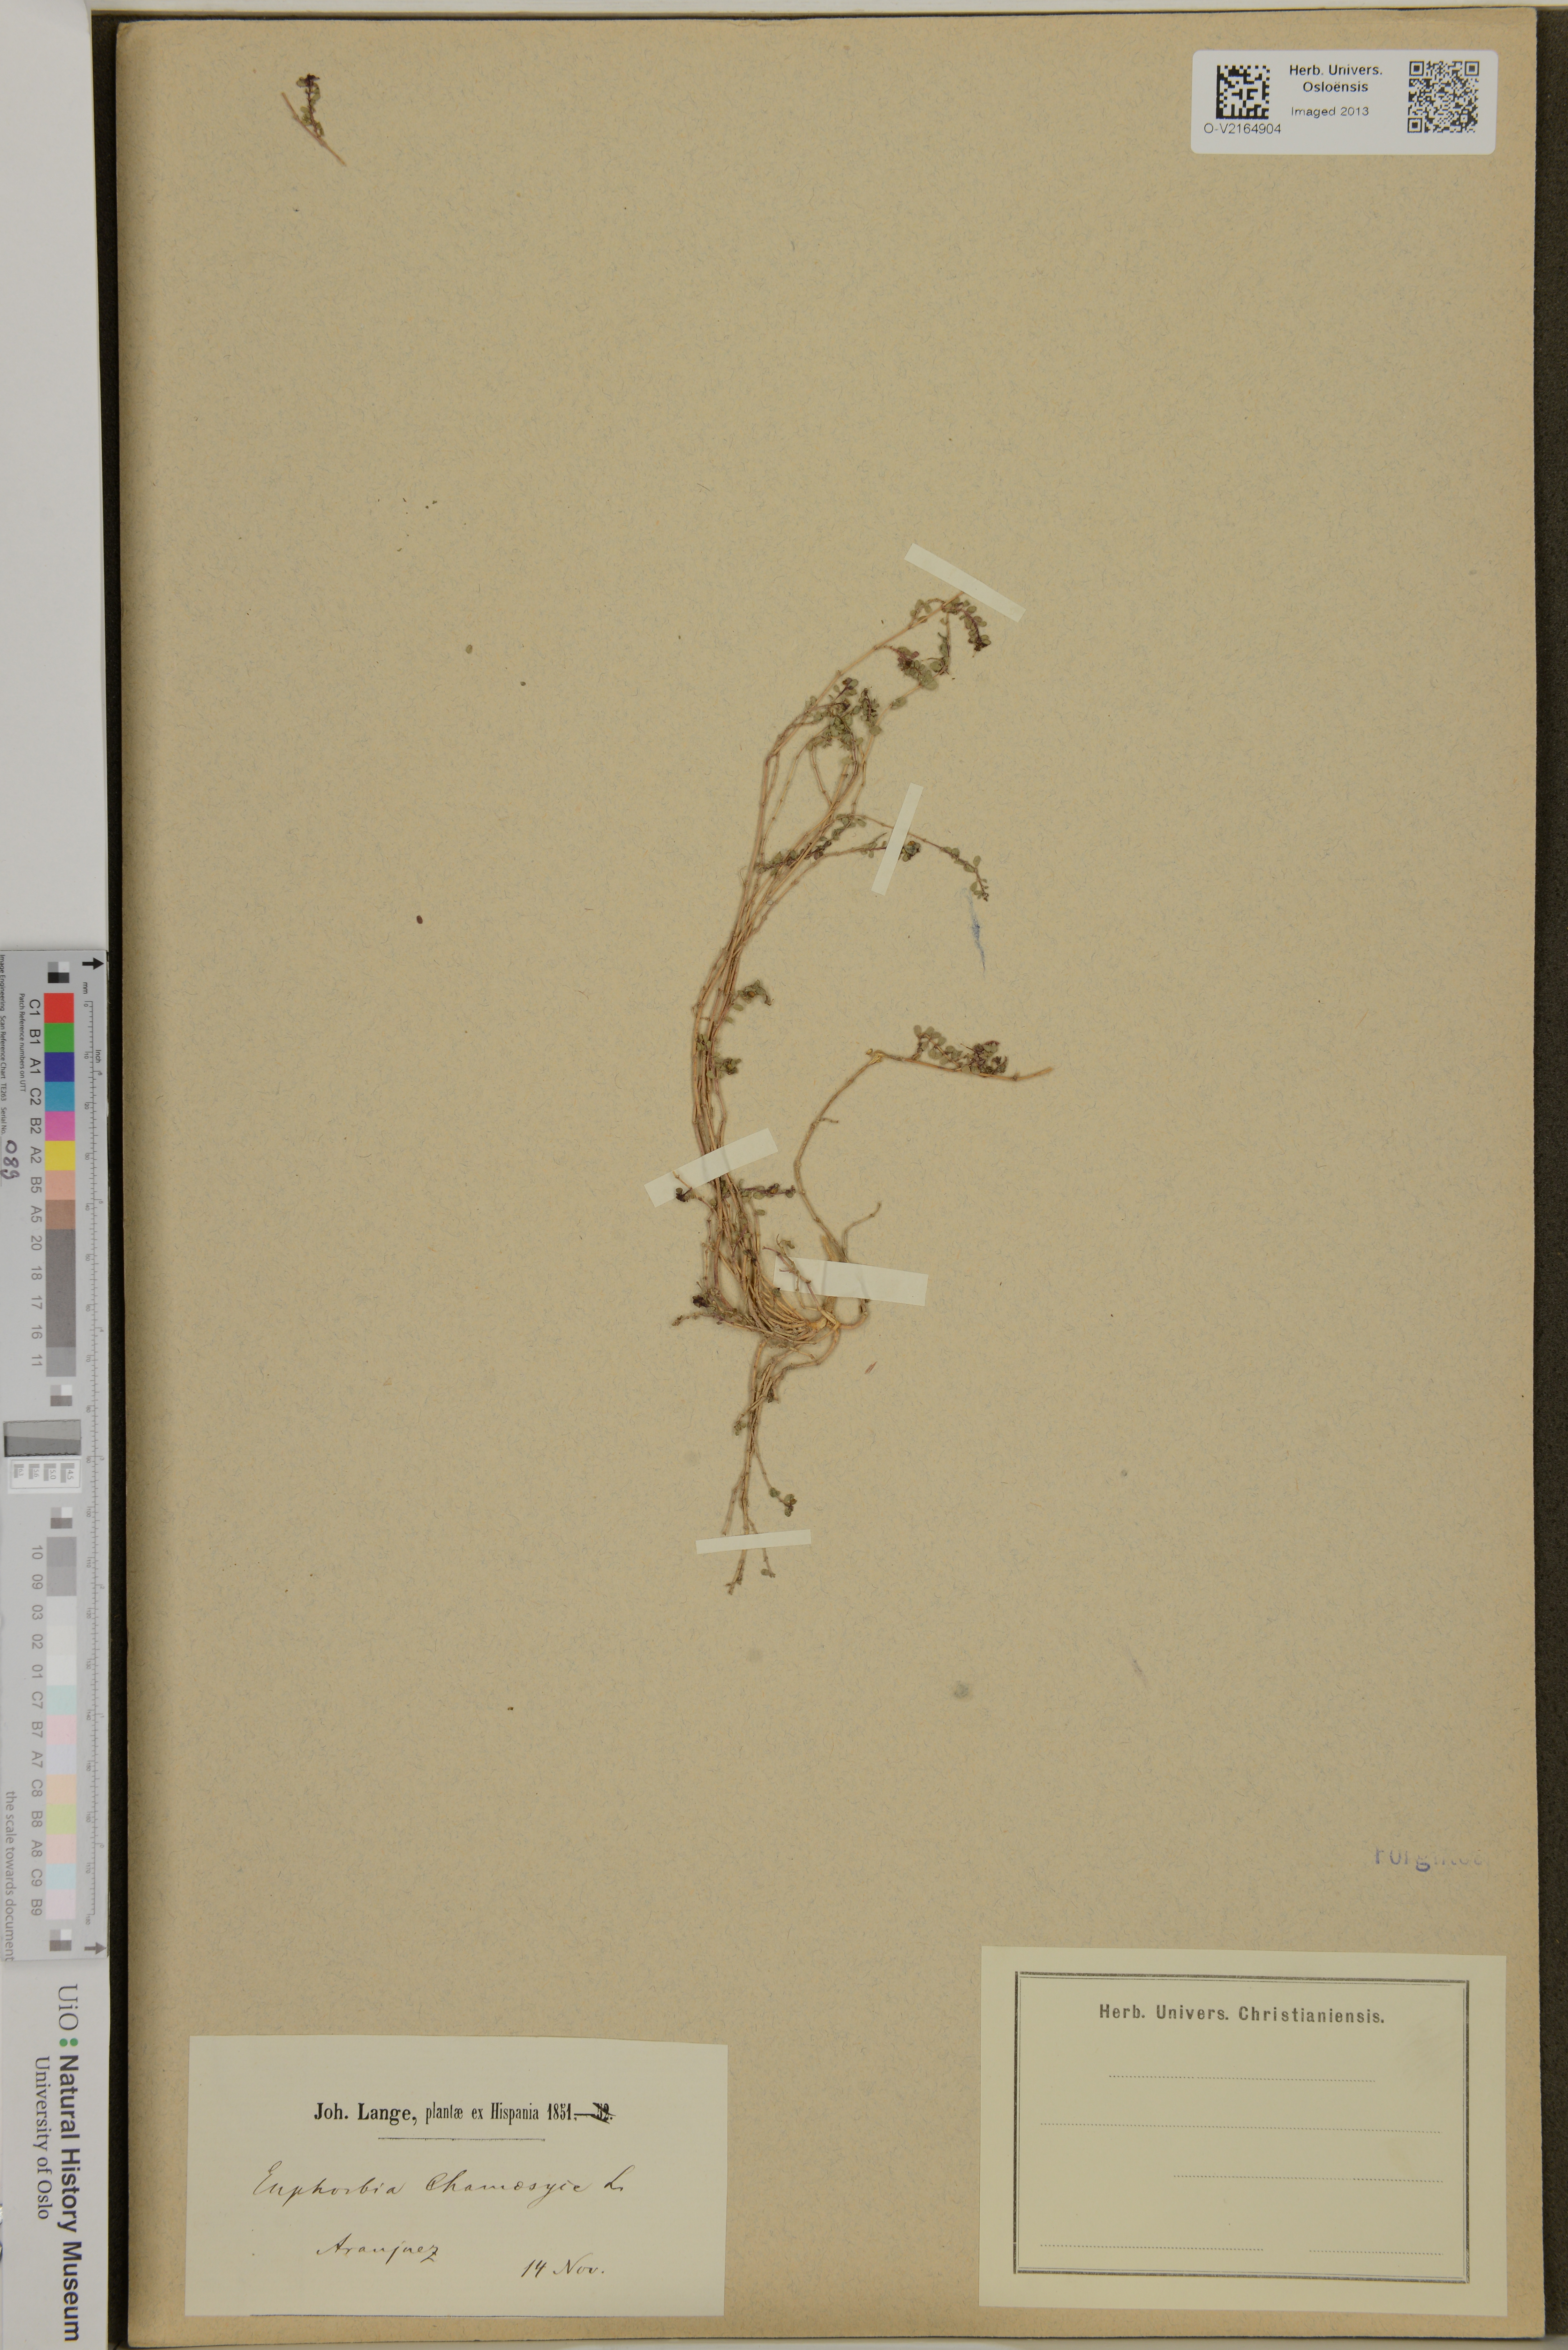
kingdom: Plantae
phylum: Tracheophyta
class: Magnoliopsida
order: Malpighiales
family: Euphorbiaceae
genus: Euphorbia
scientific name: Euphorbia chamaesyce
